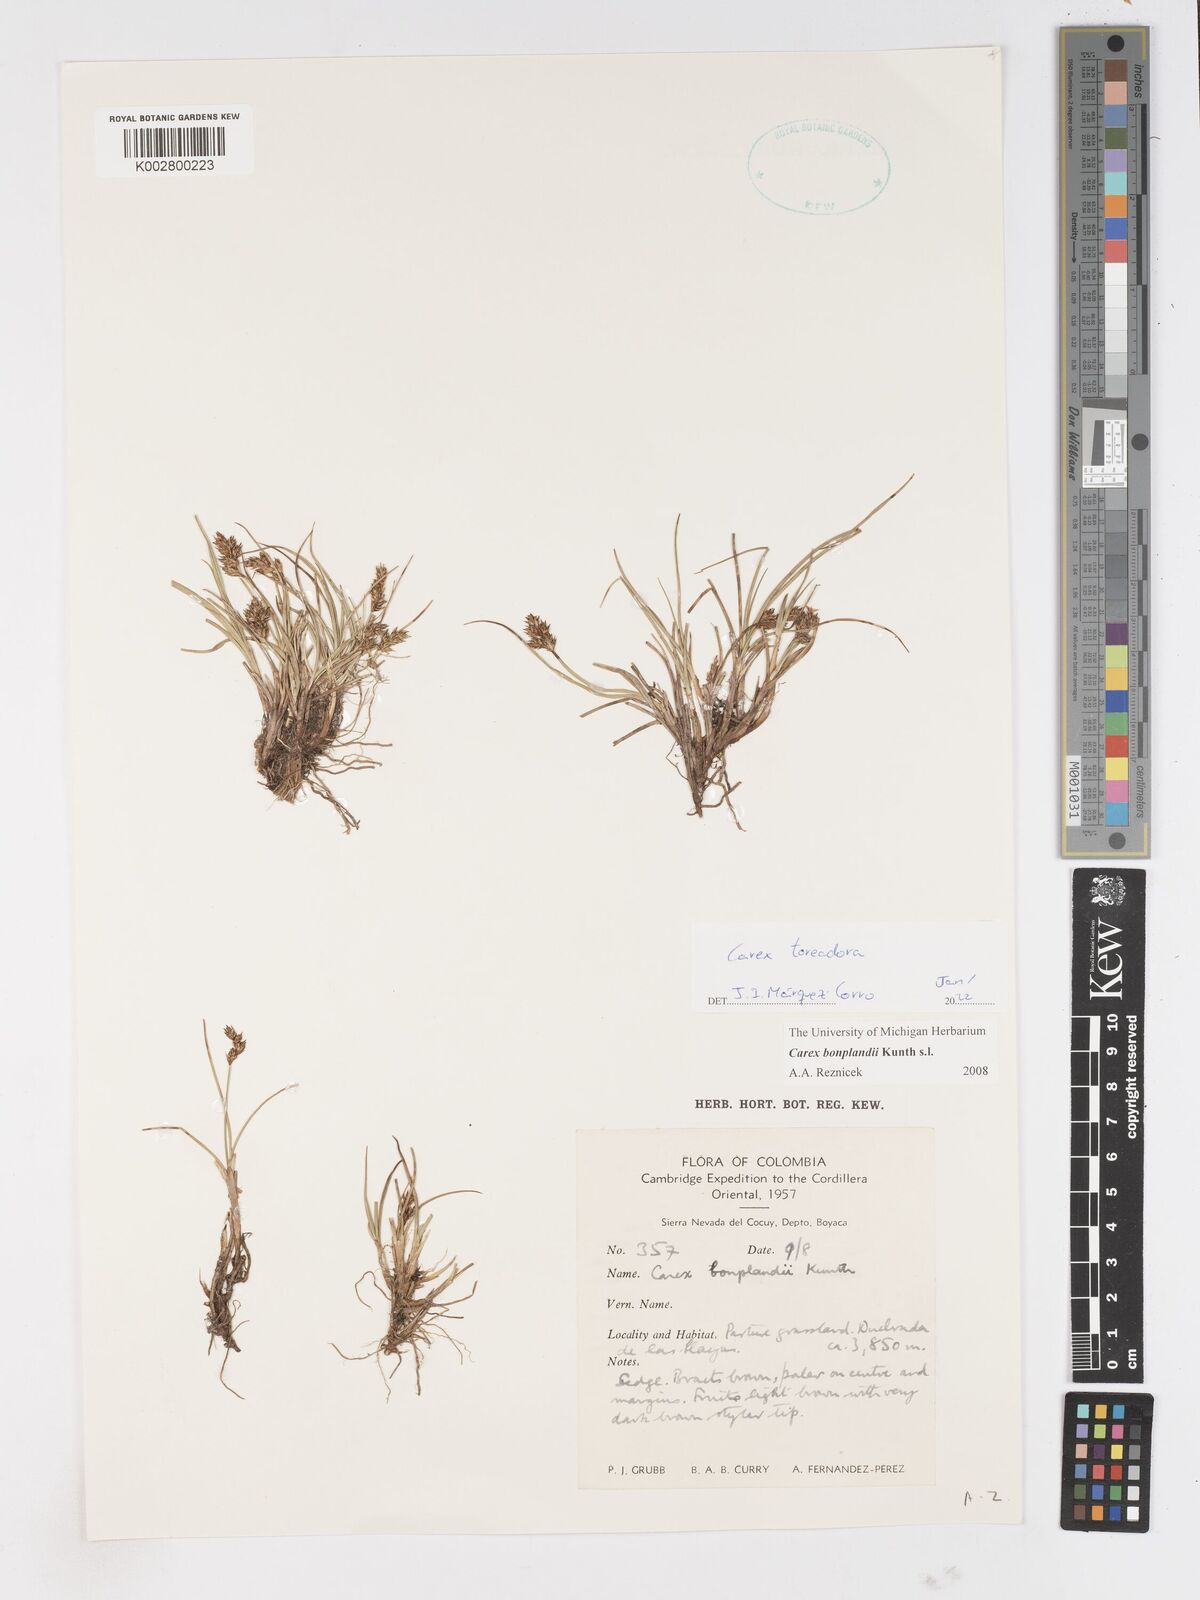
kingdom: Plantae
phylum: Tracheophyta
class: Liliopsida
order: Poales
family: Cyperaceae
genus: Carex
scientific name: Carex toreadora
